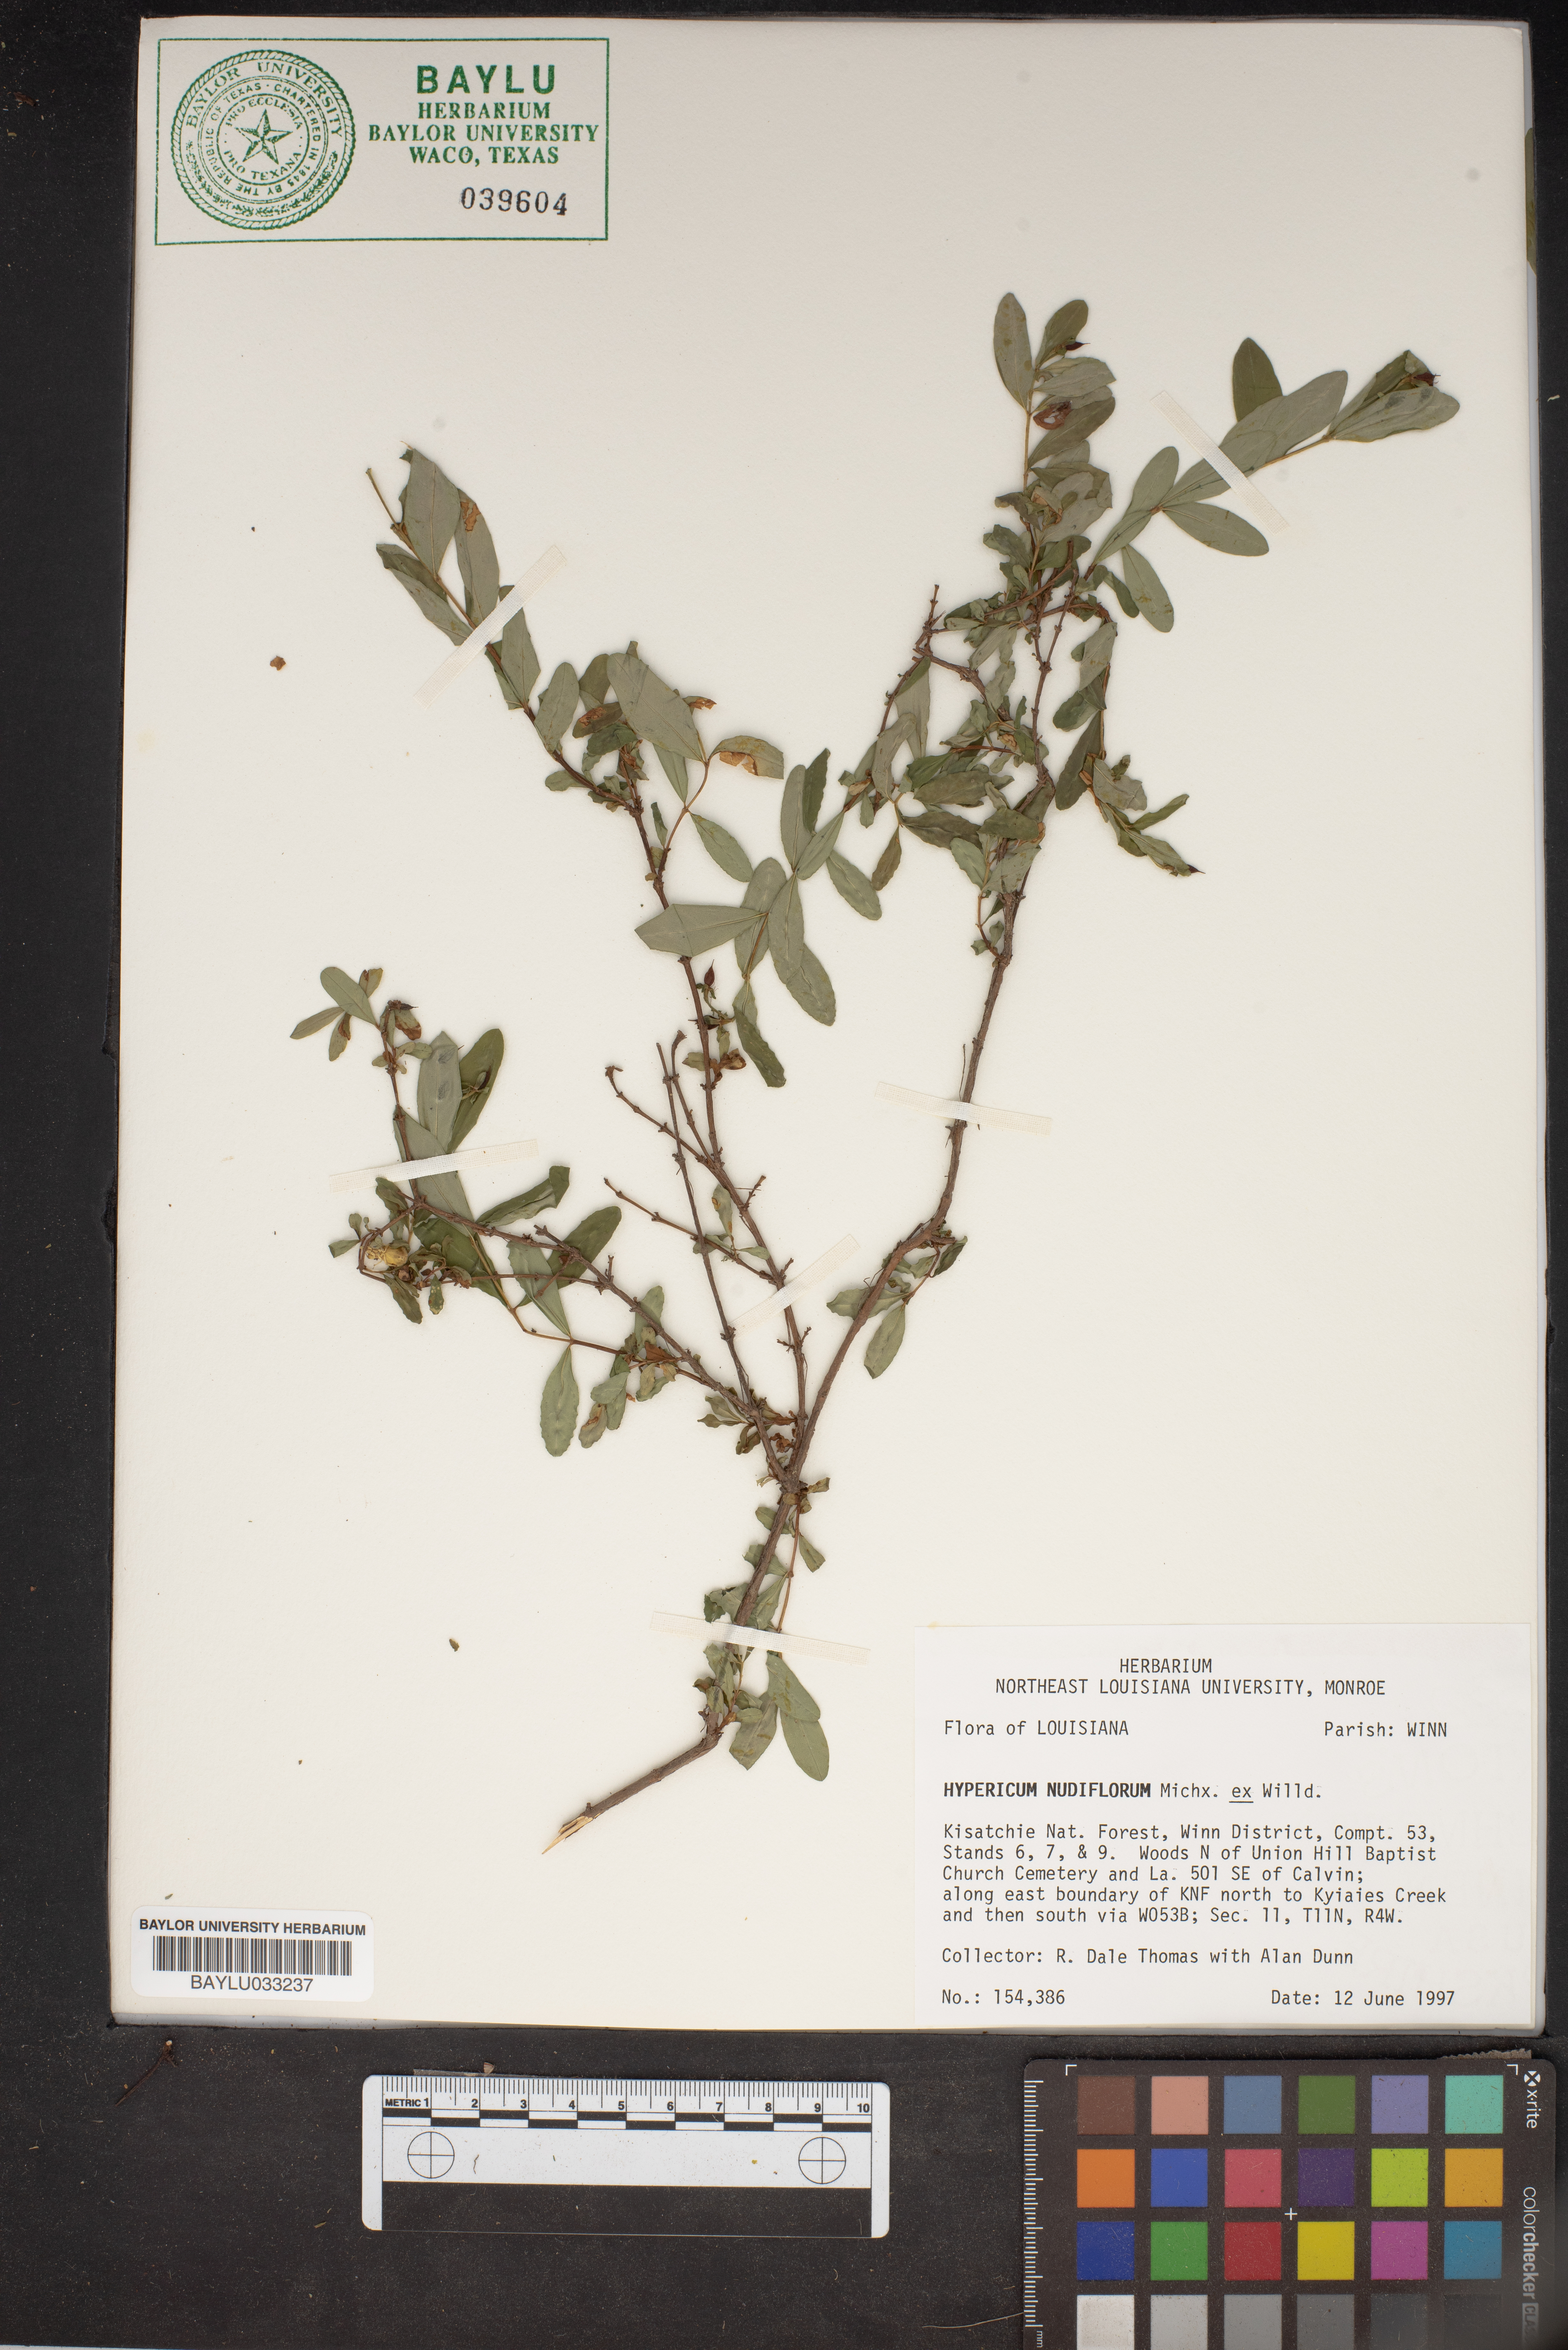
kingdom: Plantae
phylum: Tracheophyta
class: Magnoliopsida
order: Malpighiales
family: Hypericaceae
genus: Hypericum
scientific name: Hypericum nudiflorum
